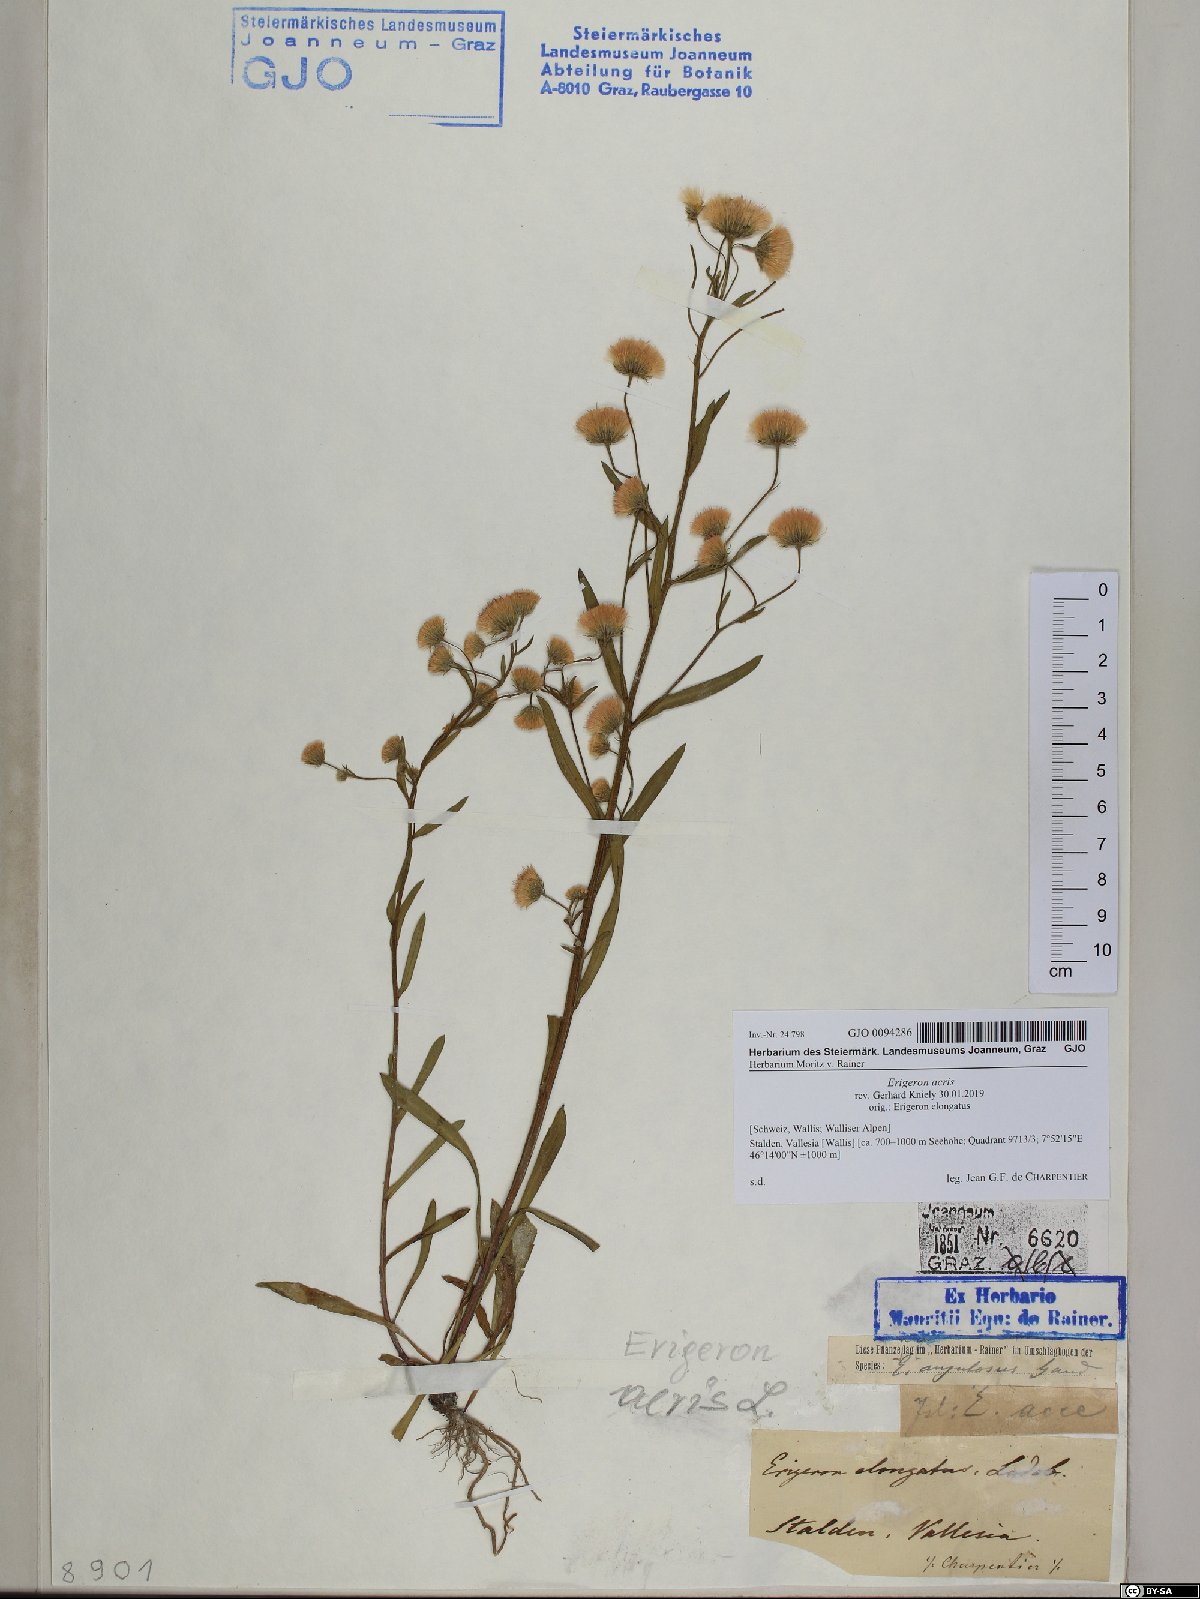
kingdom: Plantae
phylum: Tracheophyta
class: Magnoliopsida
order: Asterales
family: Asteraceae
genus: Erigeron
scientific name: Erigeron acris
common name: Blue fleabane
